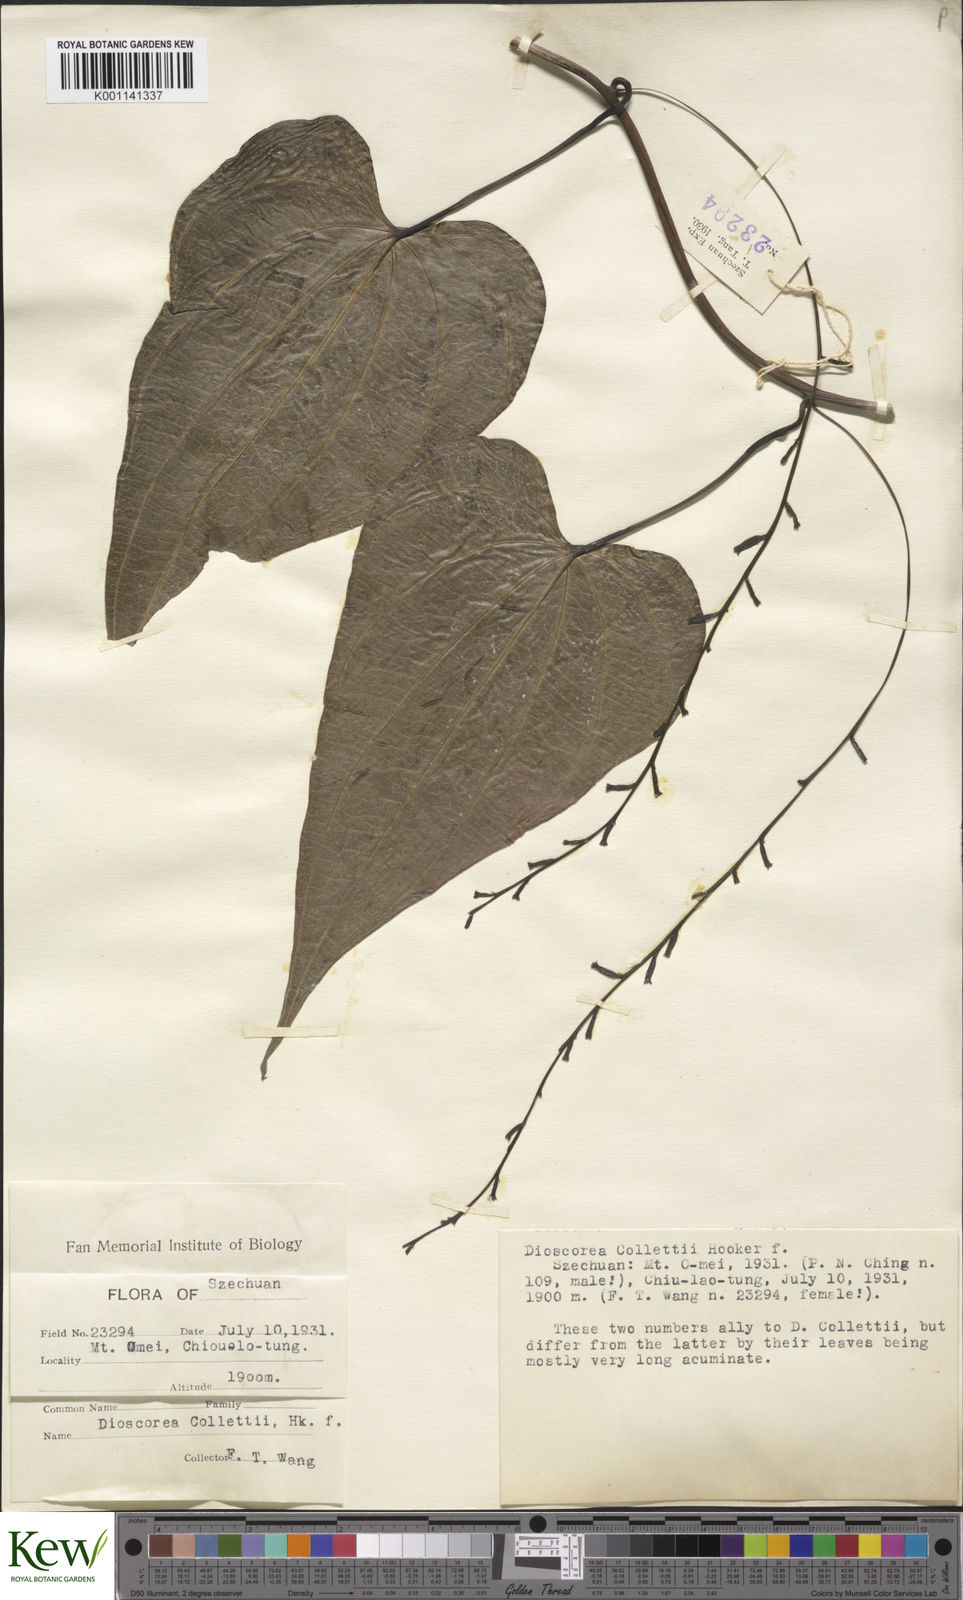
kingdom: Plantae
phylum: Tracheophyta
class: Liliopsida
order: Dioscoreales
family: Dioscoreaceae
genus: Dioscorea
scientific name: Dioscorea collettii
